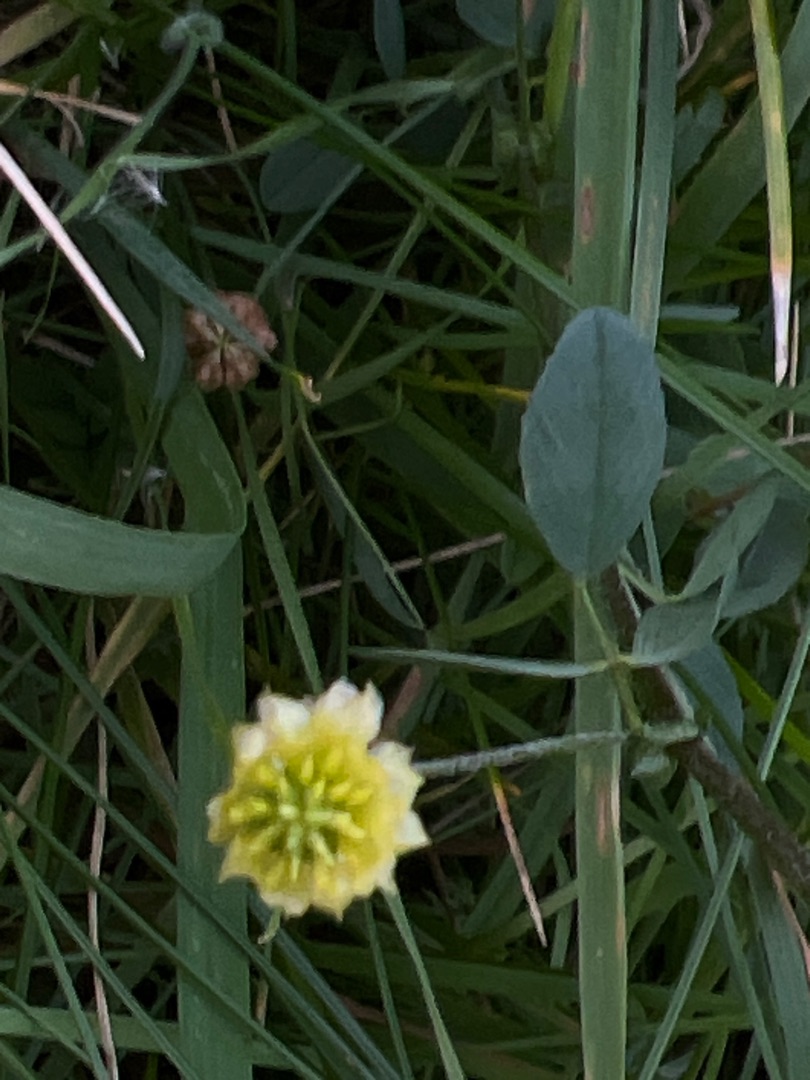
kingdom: Plantae
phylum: Tracheophyta
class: Magnoliopsida
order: Fabales
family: Fabaceae
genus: Trifolium
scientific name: Trifolium campestre
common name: Gul kløver
